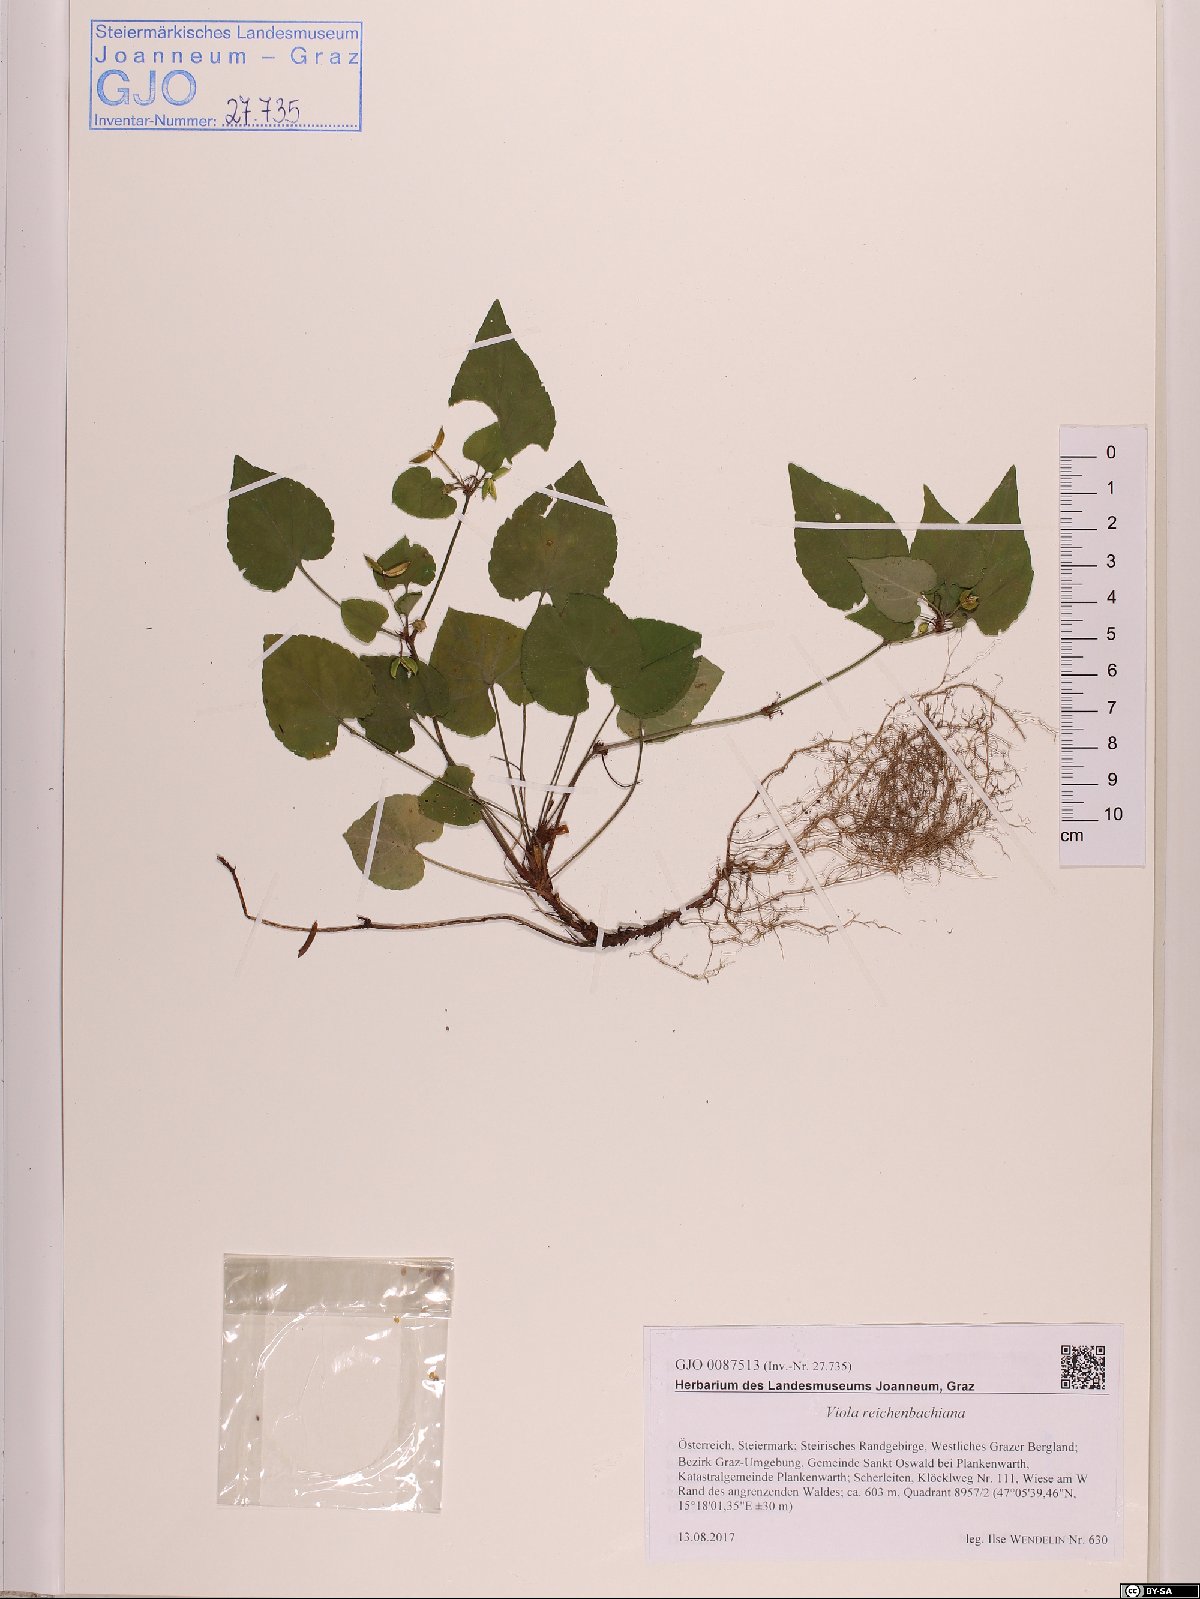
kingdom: Plantae
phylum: Tracheophyta
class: Magnoliopsida
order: Malpighiales
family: Violaceae
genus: Viola
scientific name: Viola reichenbachiana
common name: Early dog-violet
